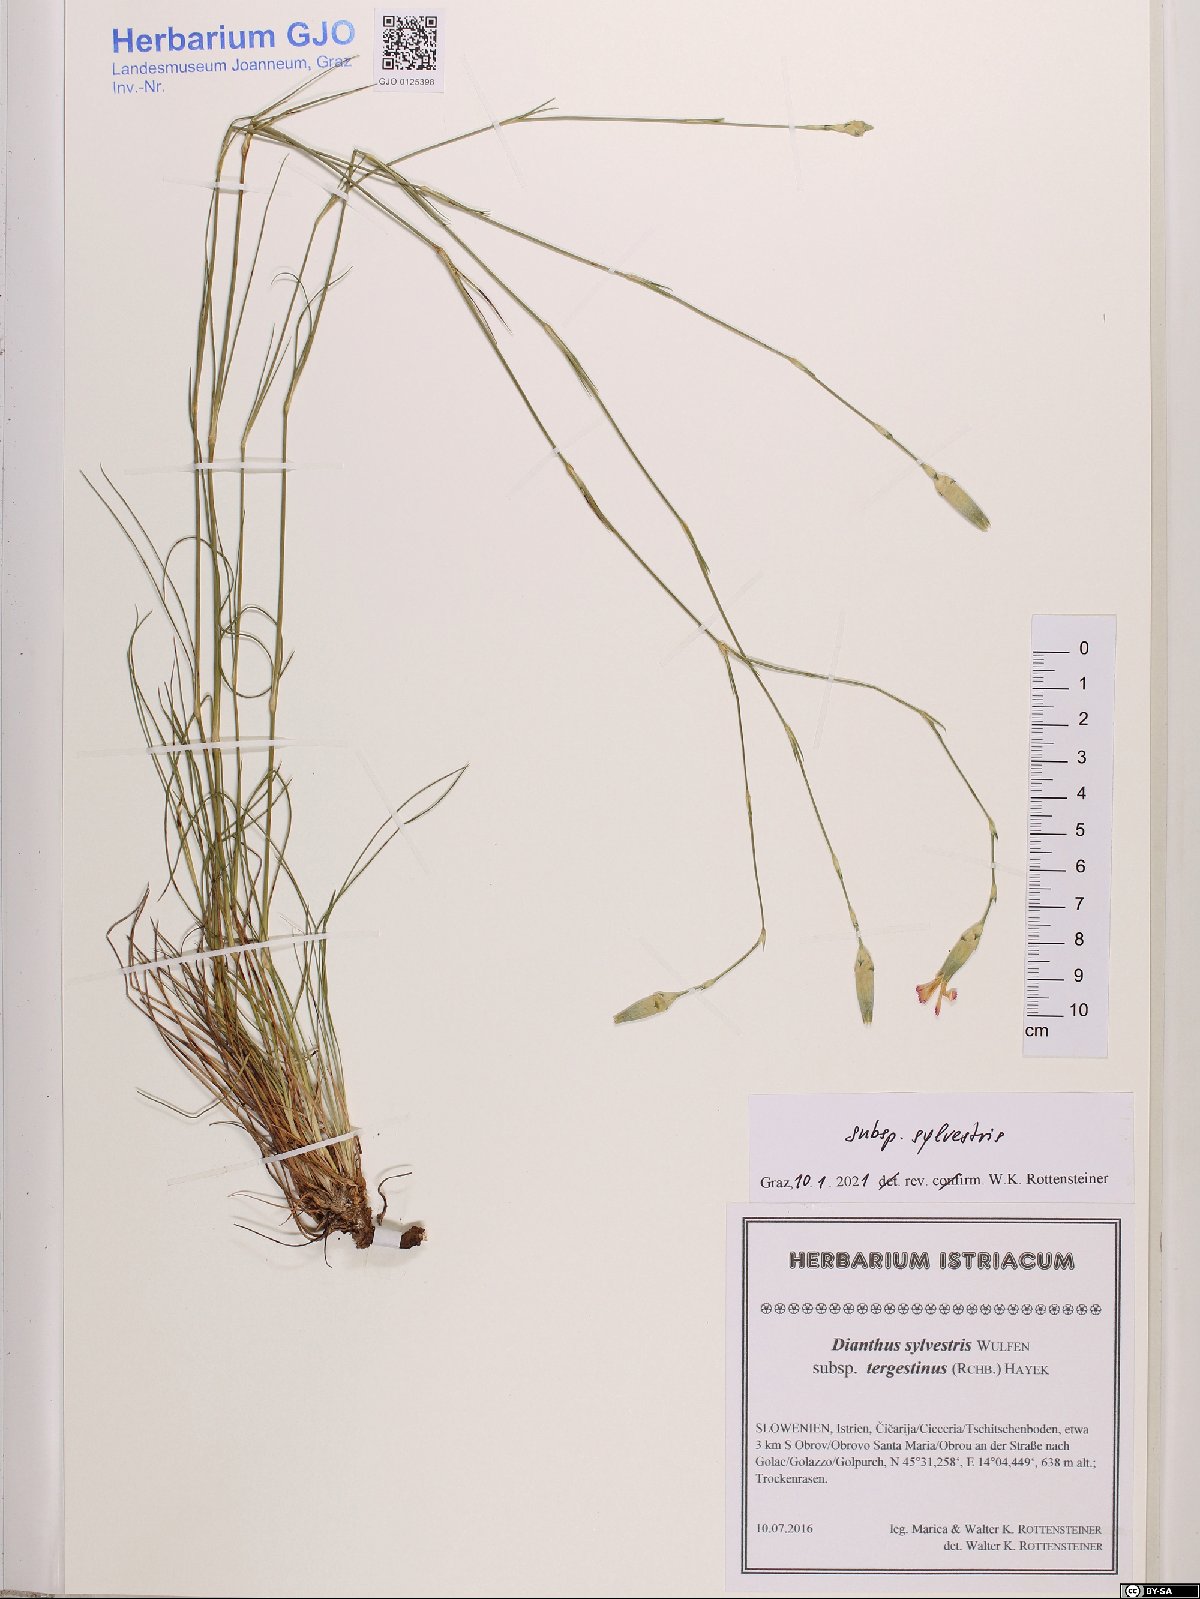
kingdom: Plantae
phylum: Tracheophyta
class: Magnoliopsida
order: Caryophyllales
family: Caryophyllaceae
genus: Dianthus
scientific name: Dianthus sylvestris
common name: Wood pink
